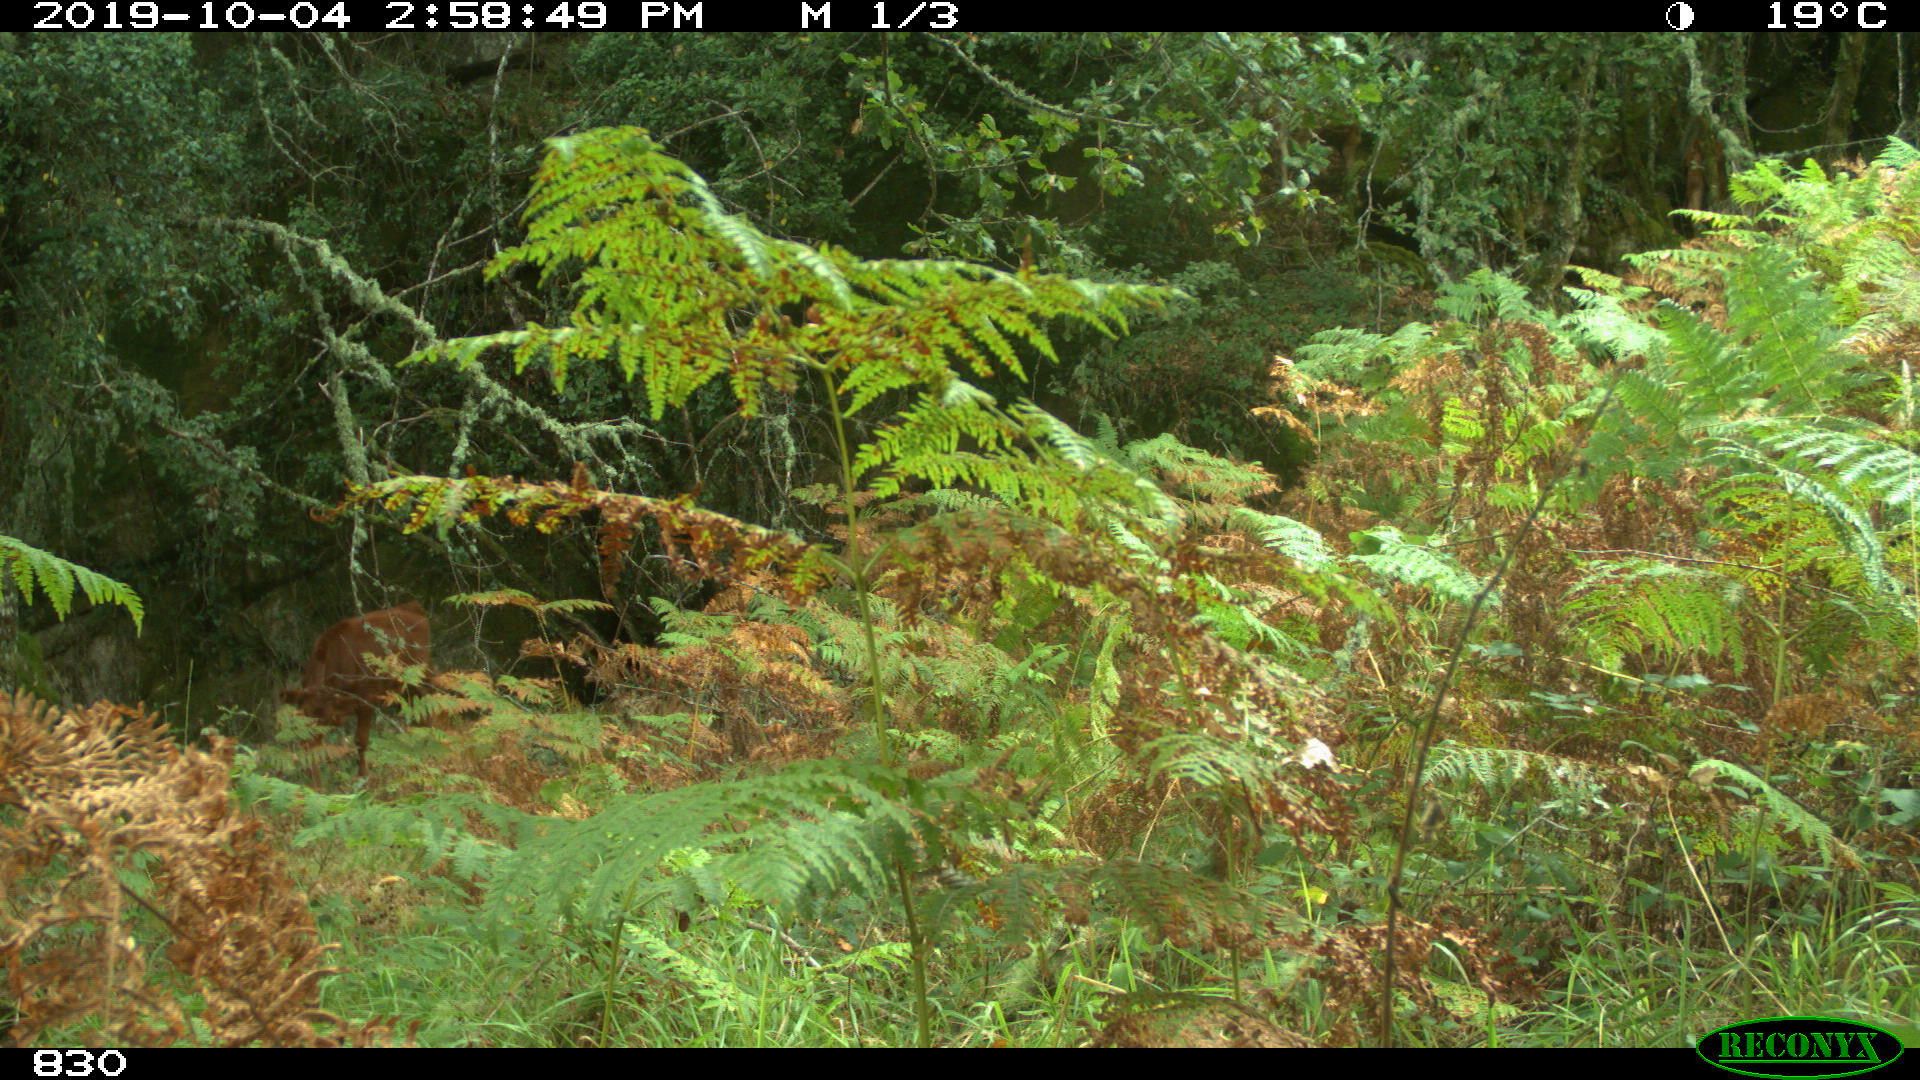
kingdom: Animalia
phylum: Chordata
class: Mammalia
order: Artiodactyla
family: Bovidae
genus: Bos
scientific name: Bos taurus
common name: Domesticated cattle
